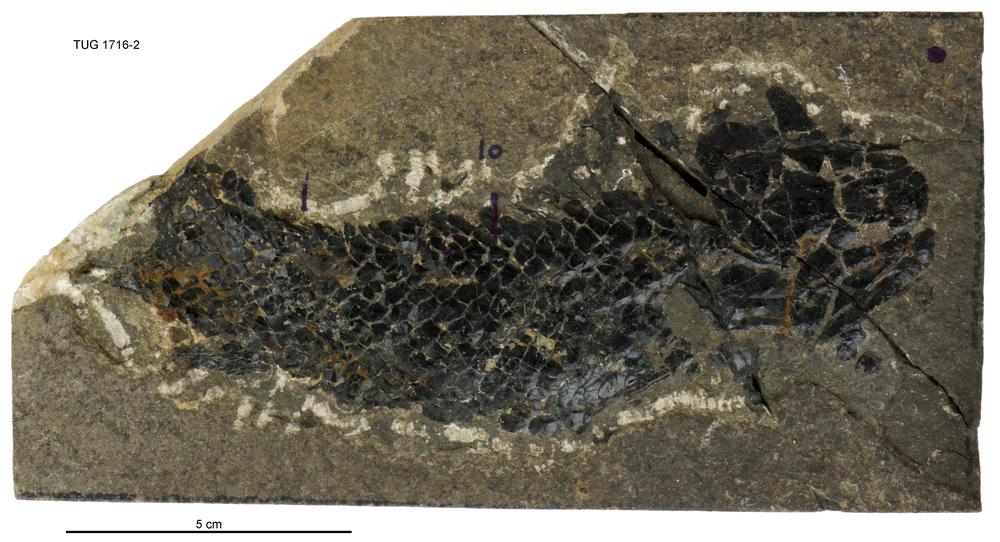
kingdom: Animalia
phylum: Chordata
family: Thursiidae
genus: Thursius
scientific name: Thursius pholidotus
